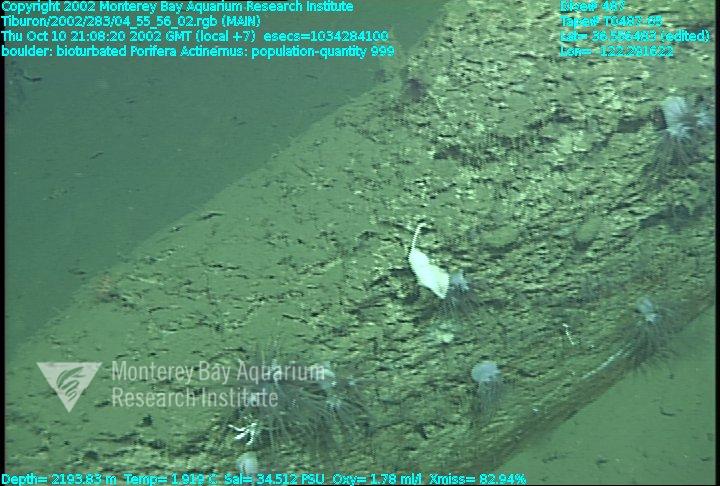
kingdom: Animalia
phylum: Porifera
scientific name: Porifera
